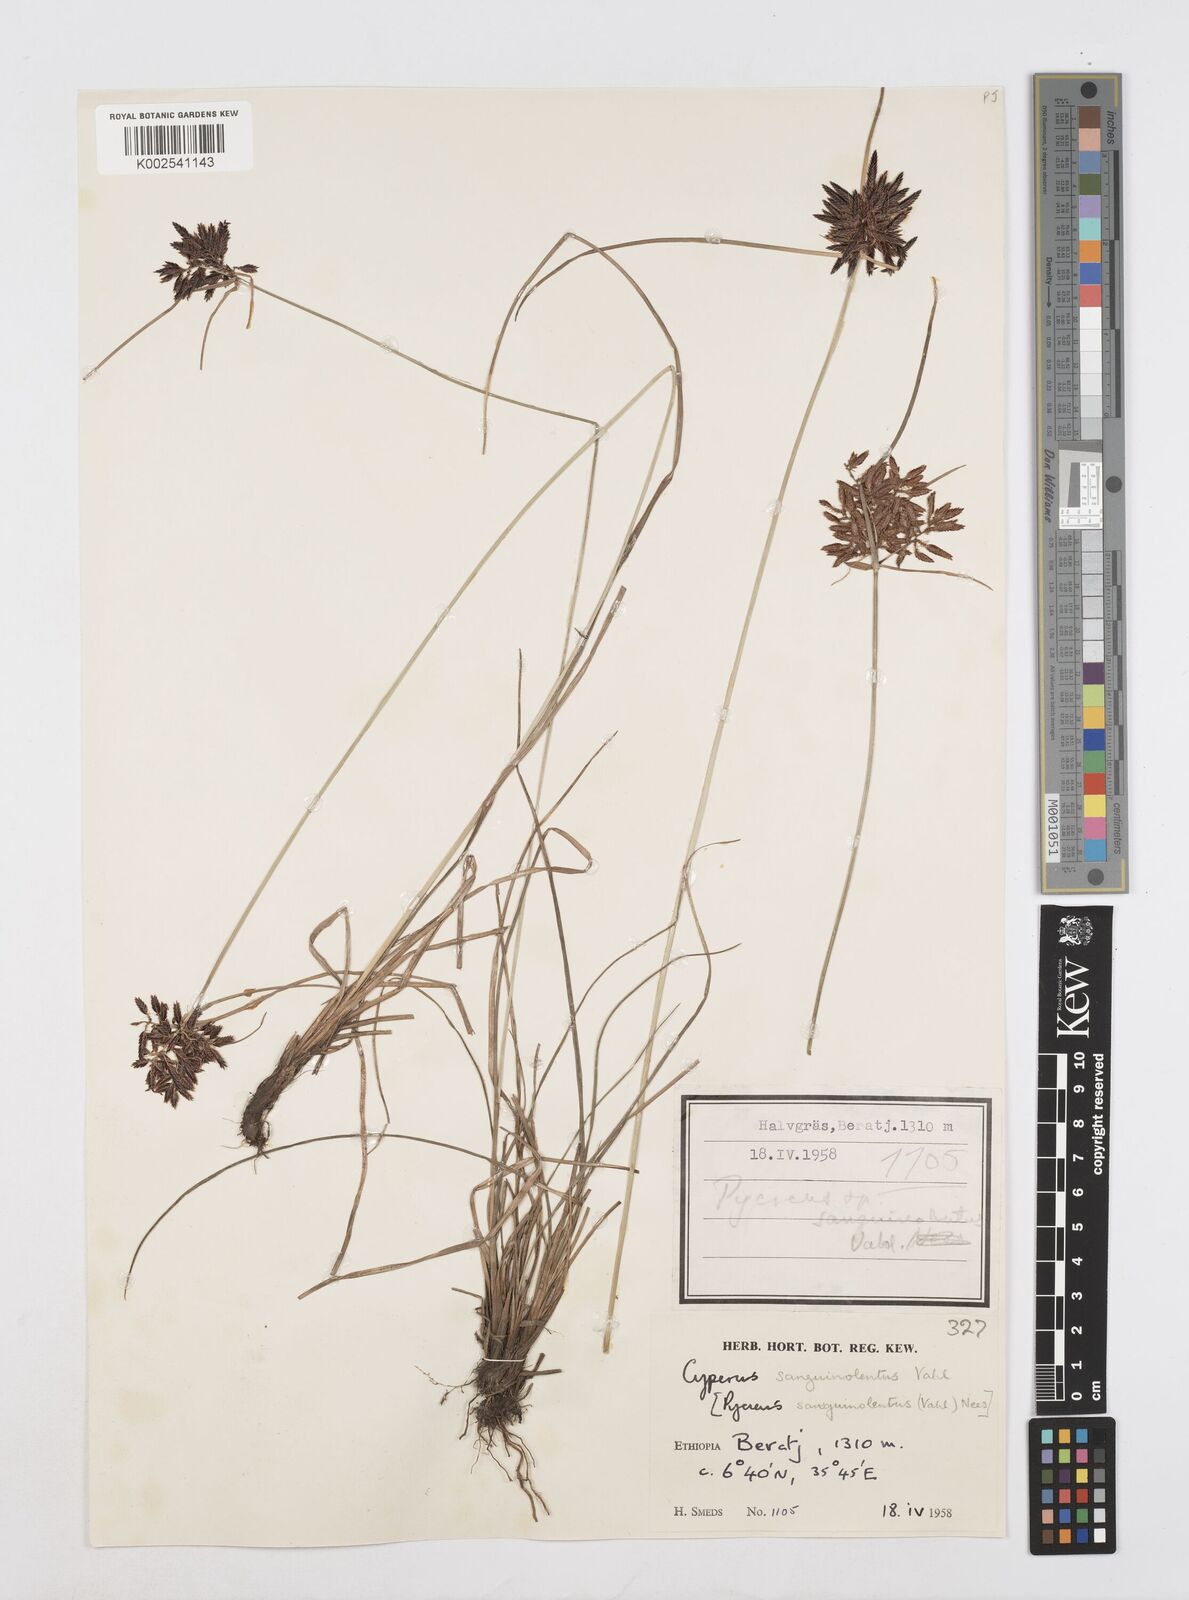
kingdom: Plantae
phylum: Tracheophyta
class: Liliopsida
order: Poales
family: Cyperaceae
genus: Cyperus
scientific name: Cyperus aethiops
